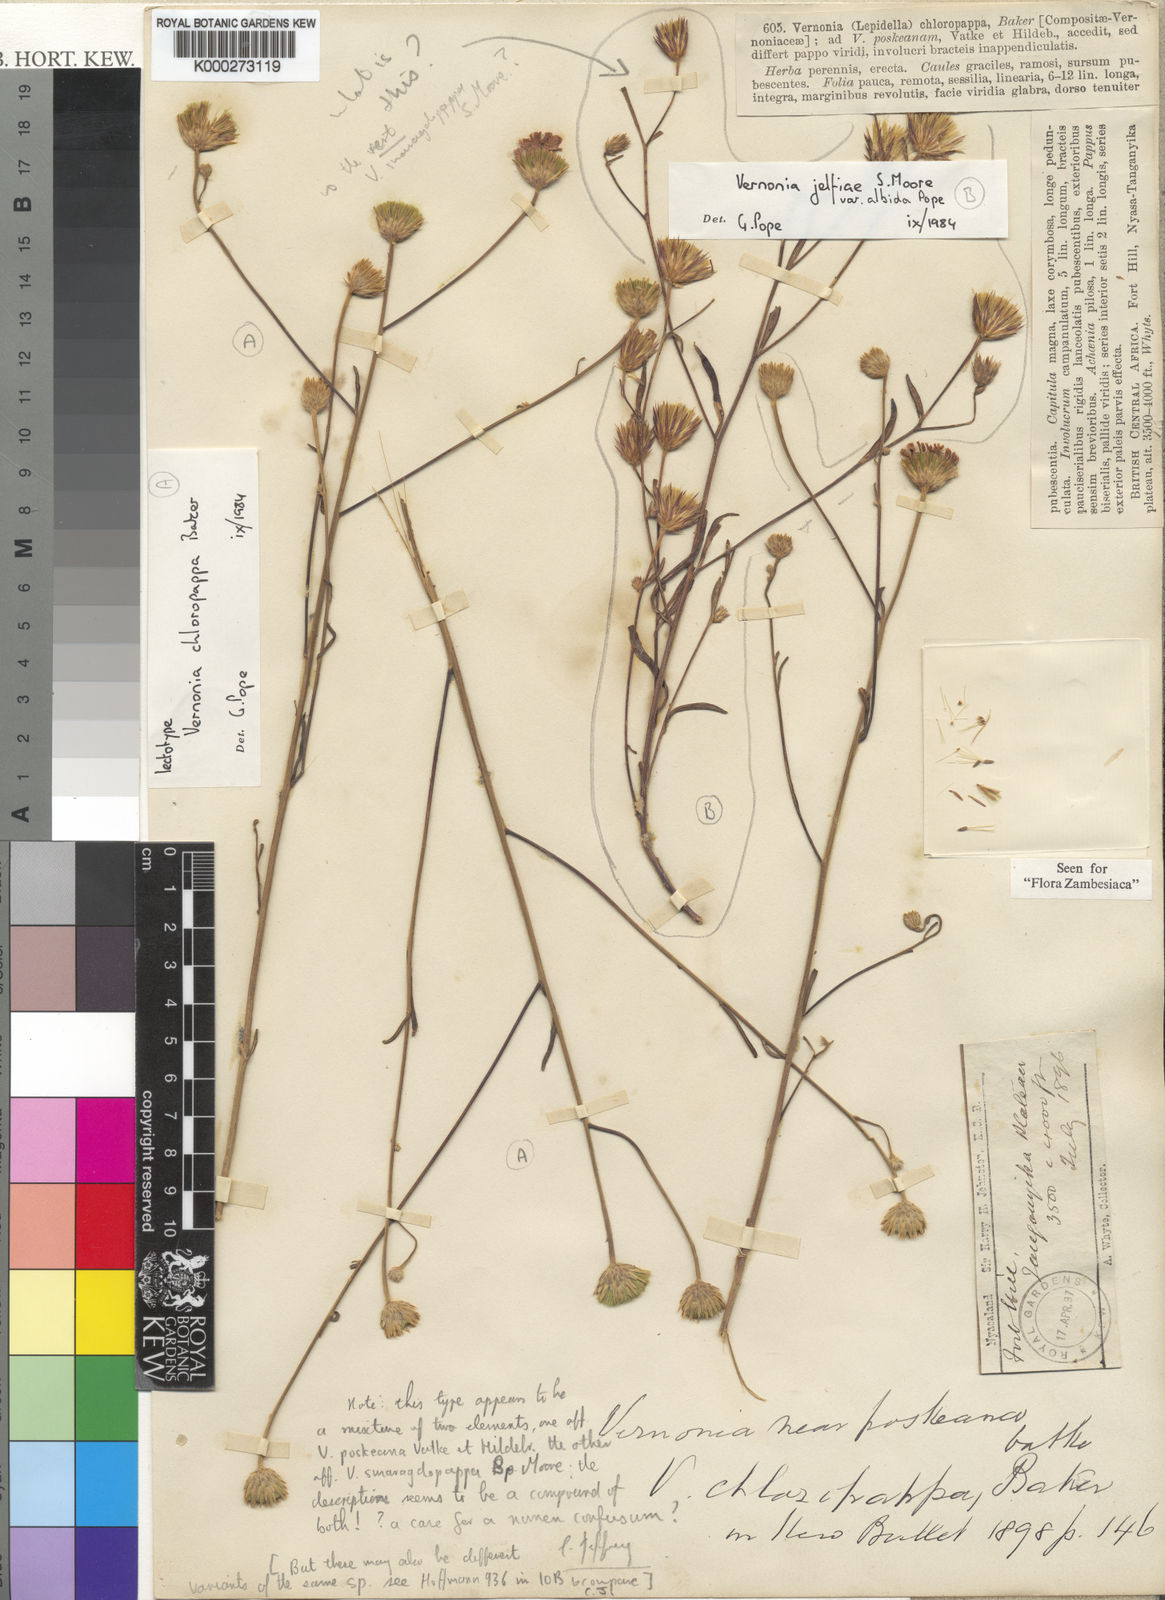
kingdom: Plantae
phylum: Tracheophyta
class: Magnoliopsida
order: Asterales
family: Asteraceae
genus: Crystallopollen
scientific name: Crystallopollen chloropappum
